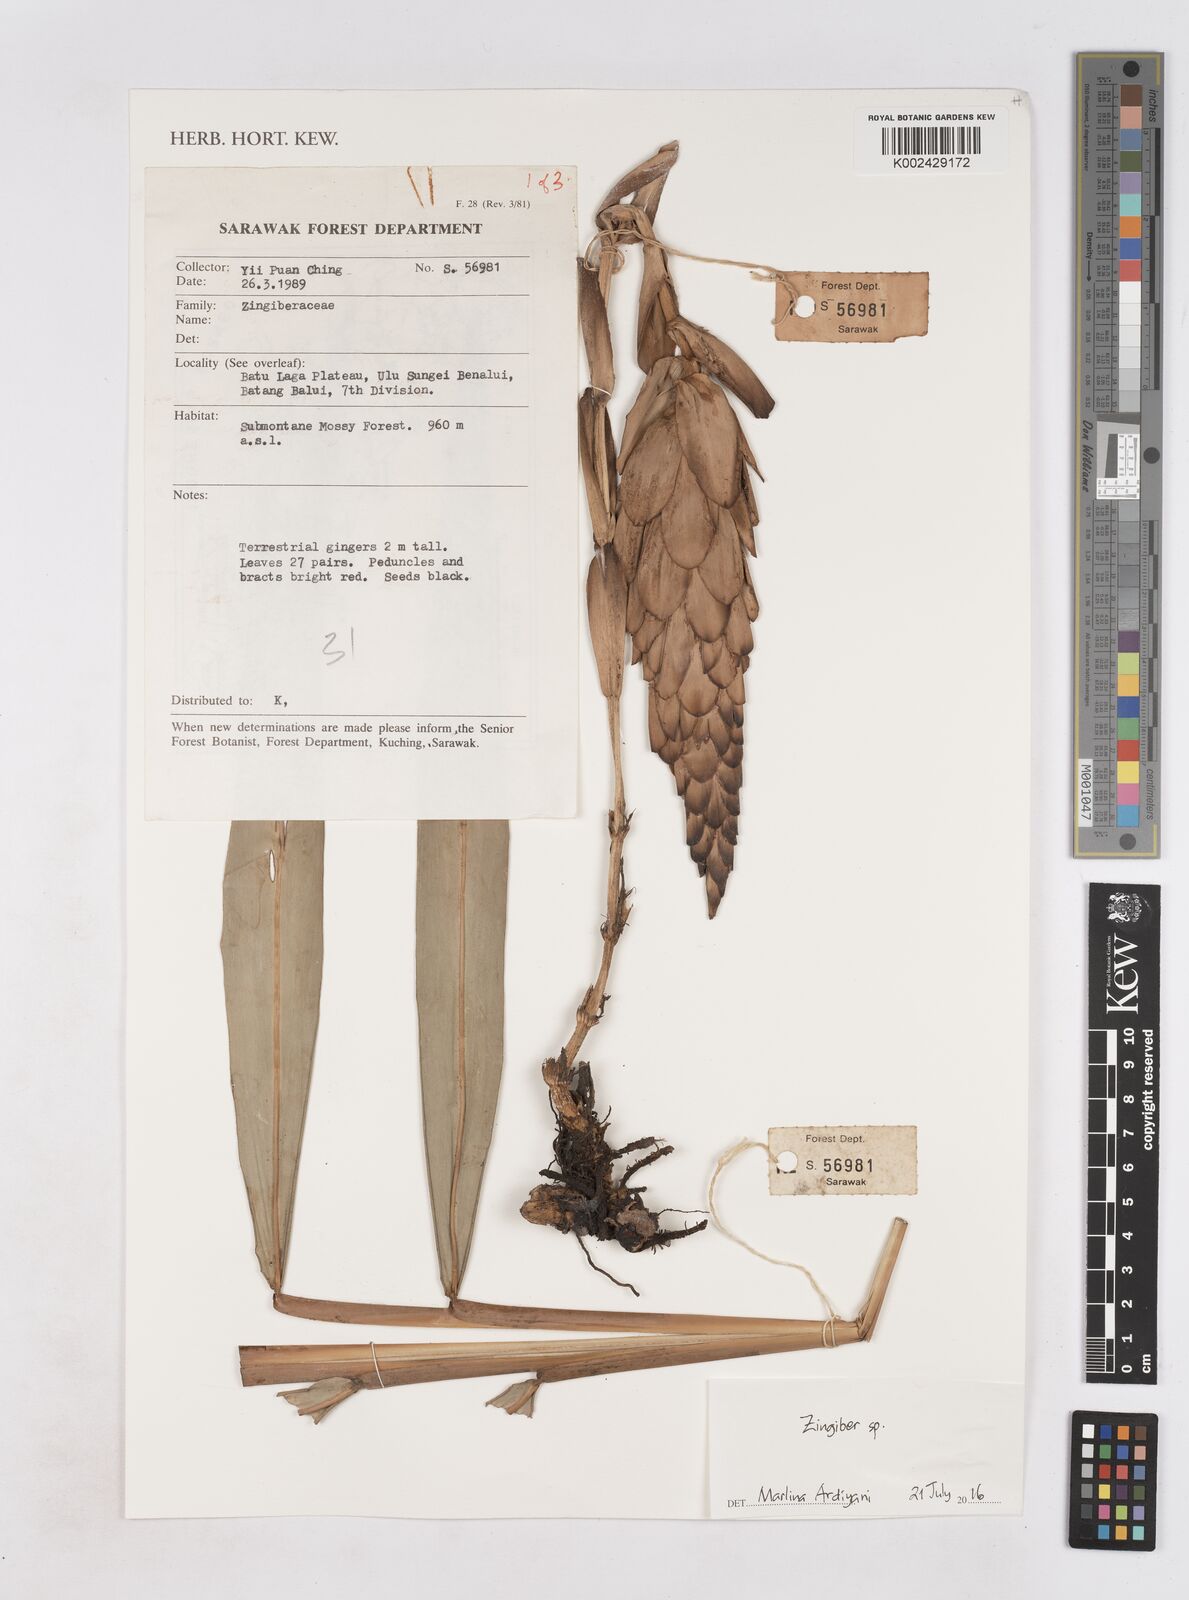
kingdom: Plantae
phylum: Tracheophyta
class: Liliopsida
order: Zingiberales
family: Zingiberaceae
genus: Zingiber
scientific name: Zingiber
